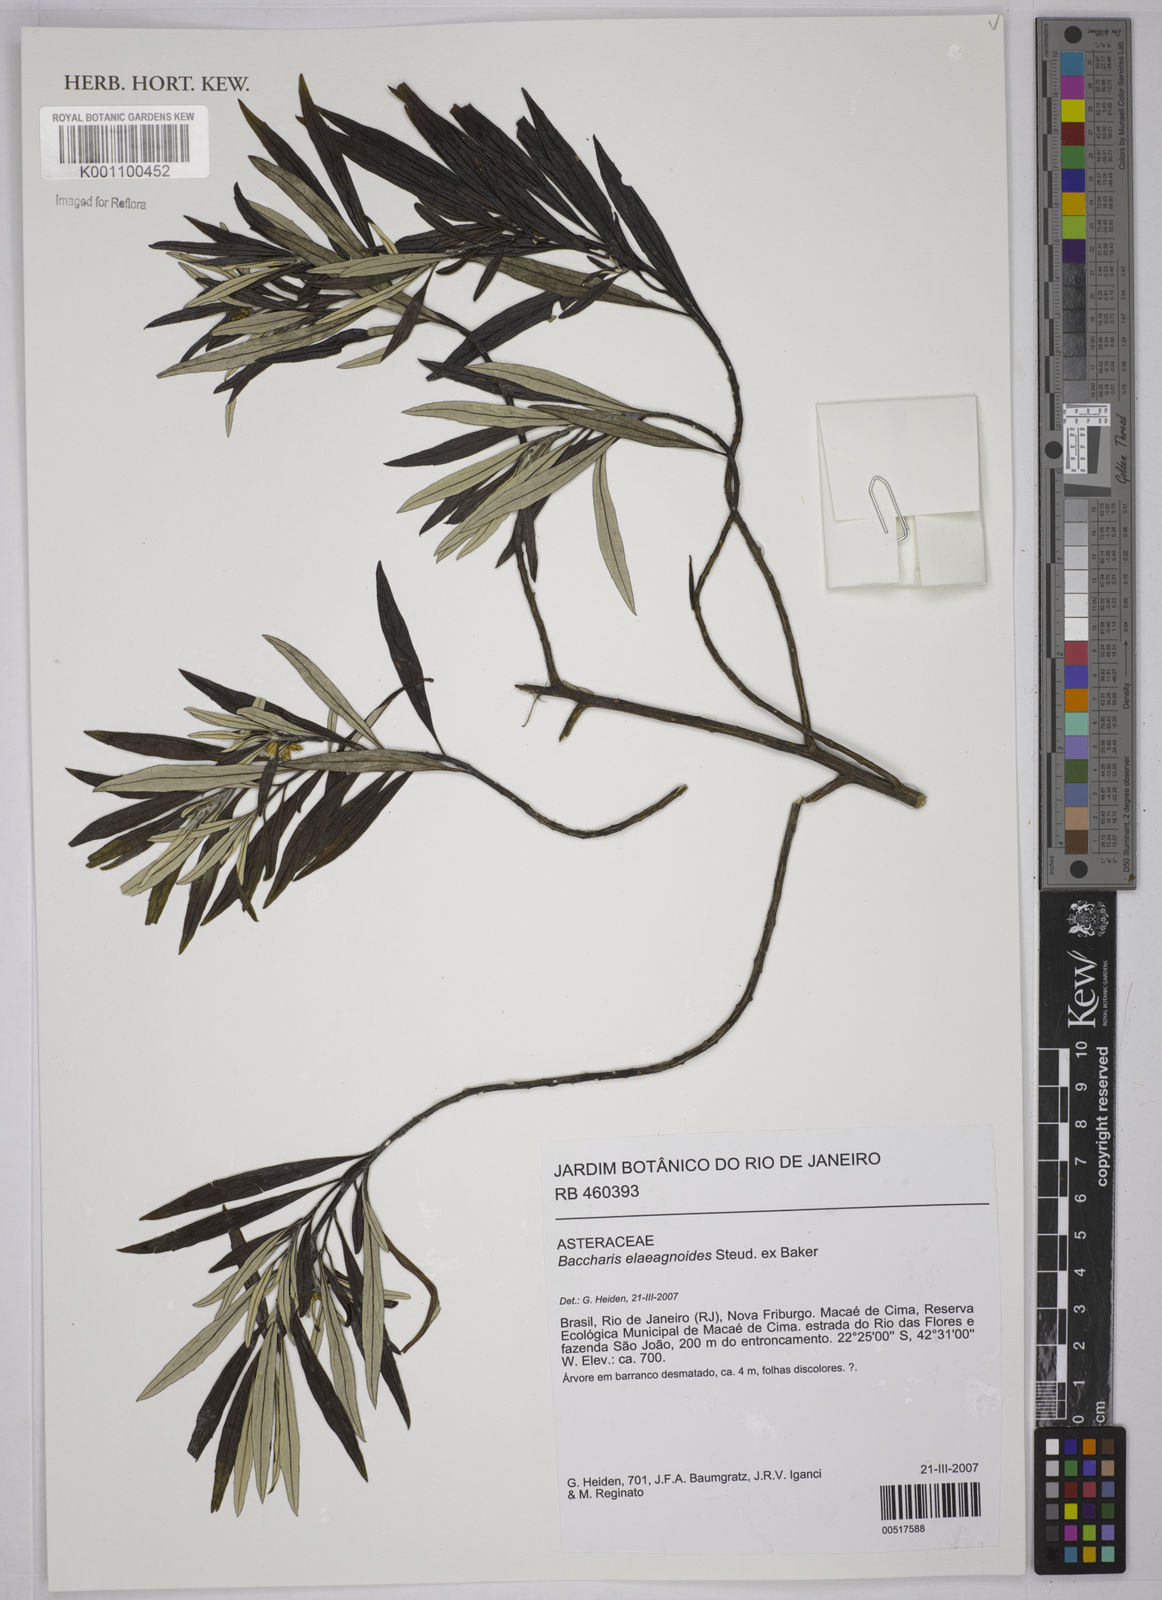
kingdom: Plantae
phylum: Tracheophyta
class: Magnoliopsida
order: Asterales
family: Asteraceae
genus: Baccharis
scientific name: Baccharis
